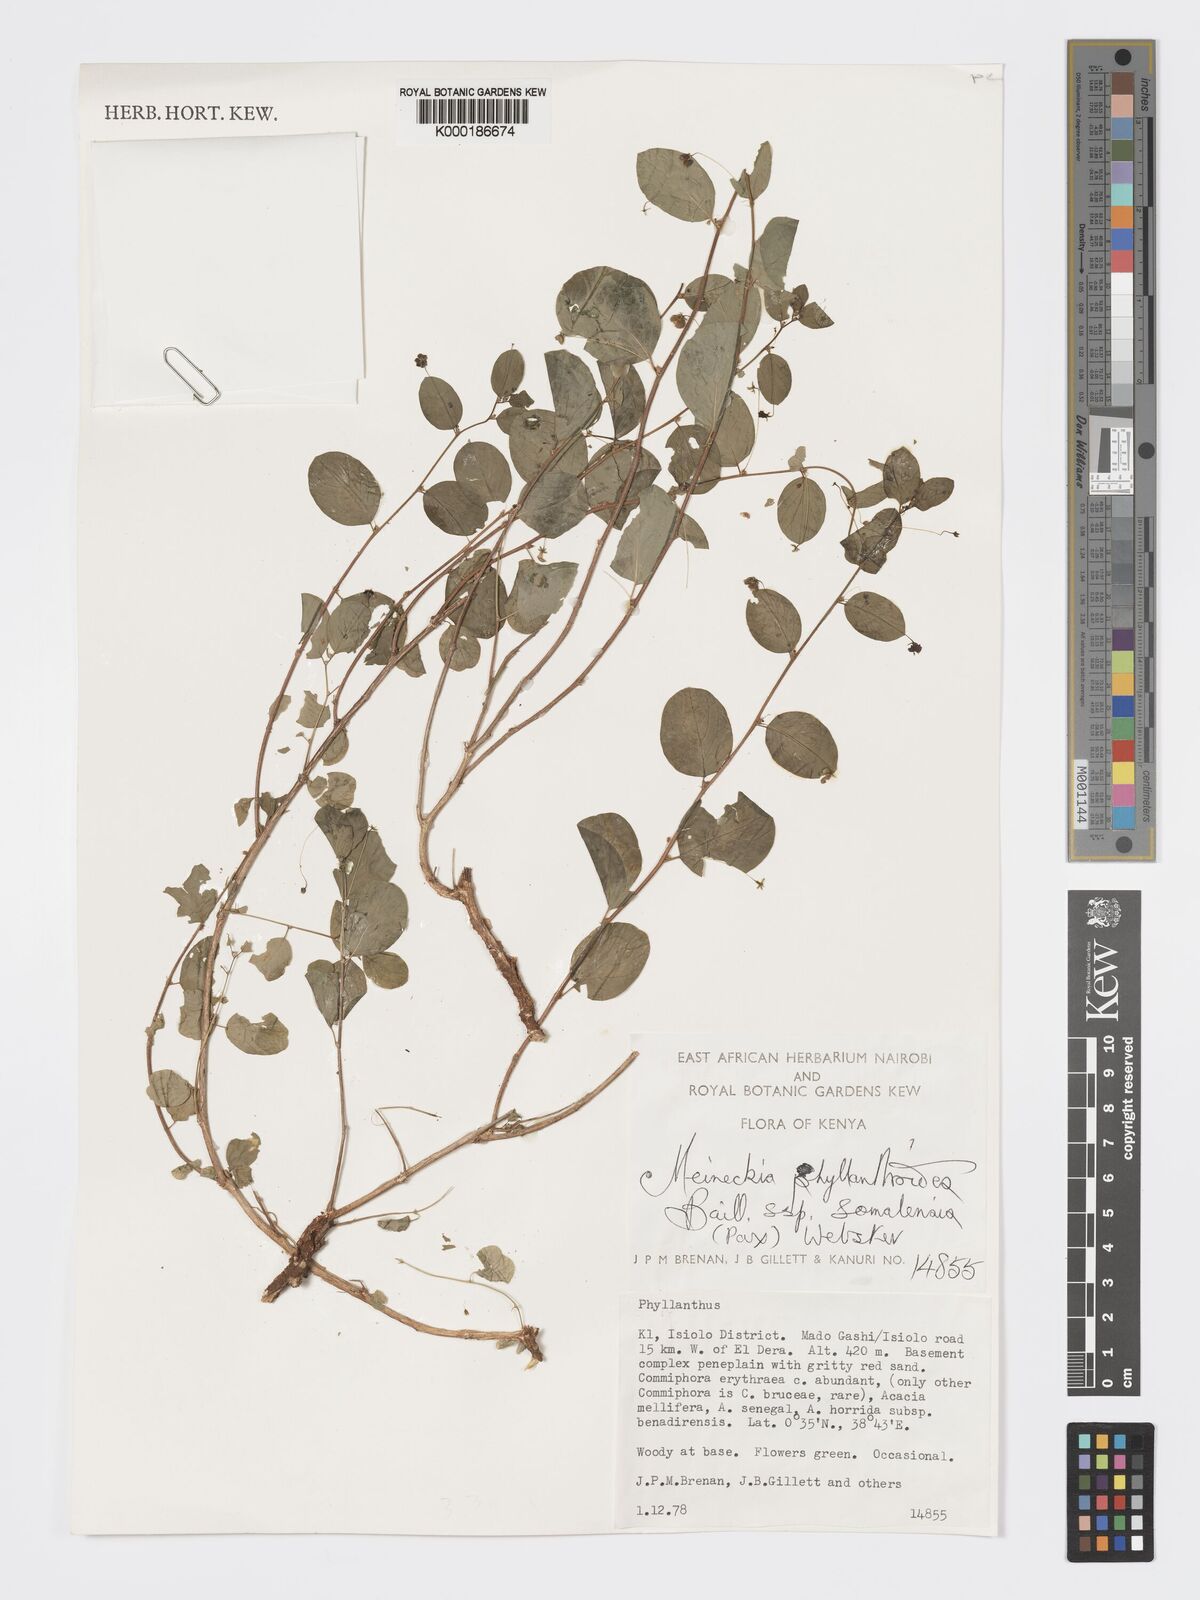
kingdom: Plantae
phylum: Tracheophyta
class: Magnoliopsida
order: Malpighiales
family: Phyllanthaceae
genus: Meineckia
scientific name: Meineckia phyllanthoides
